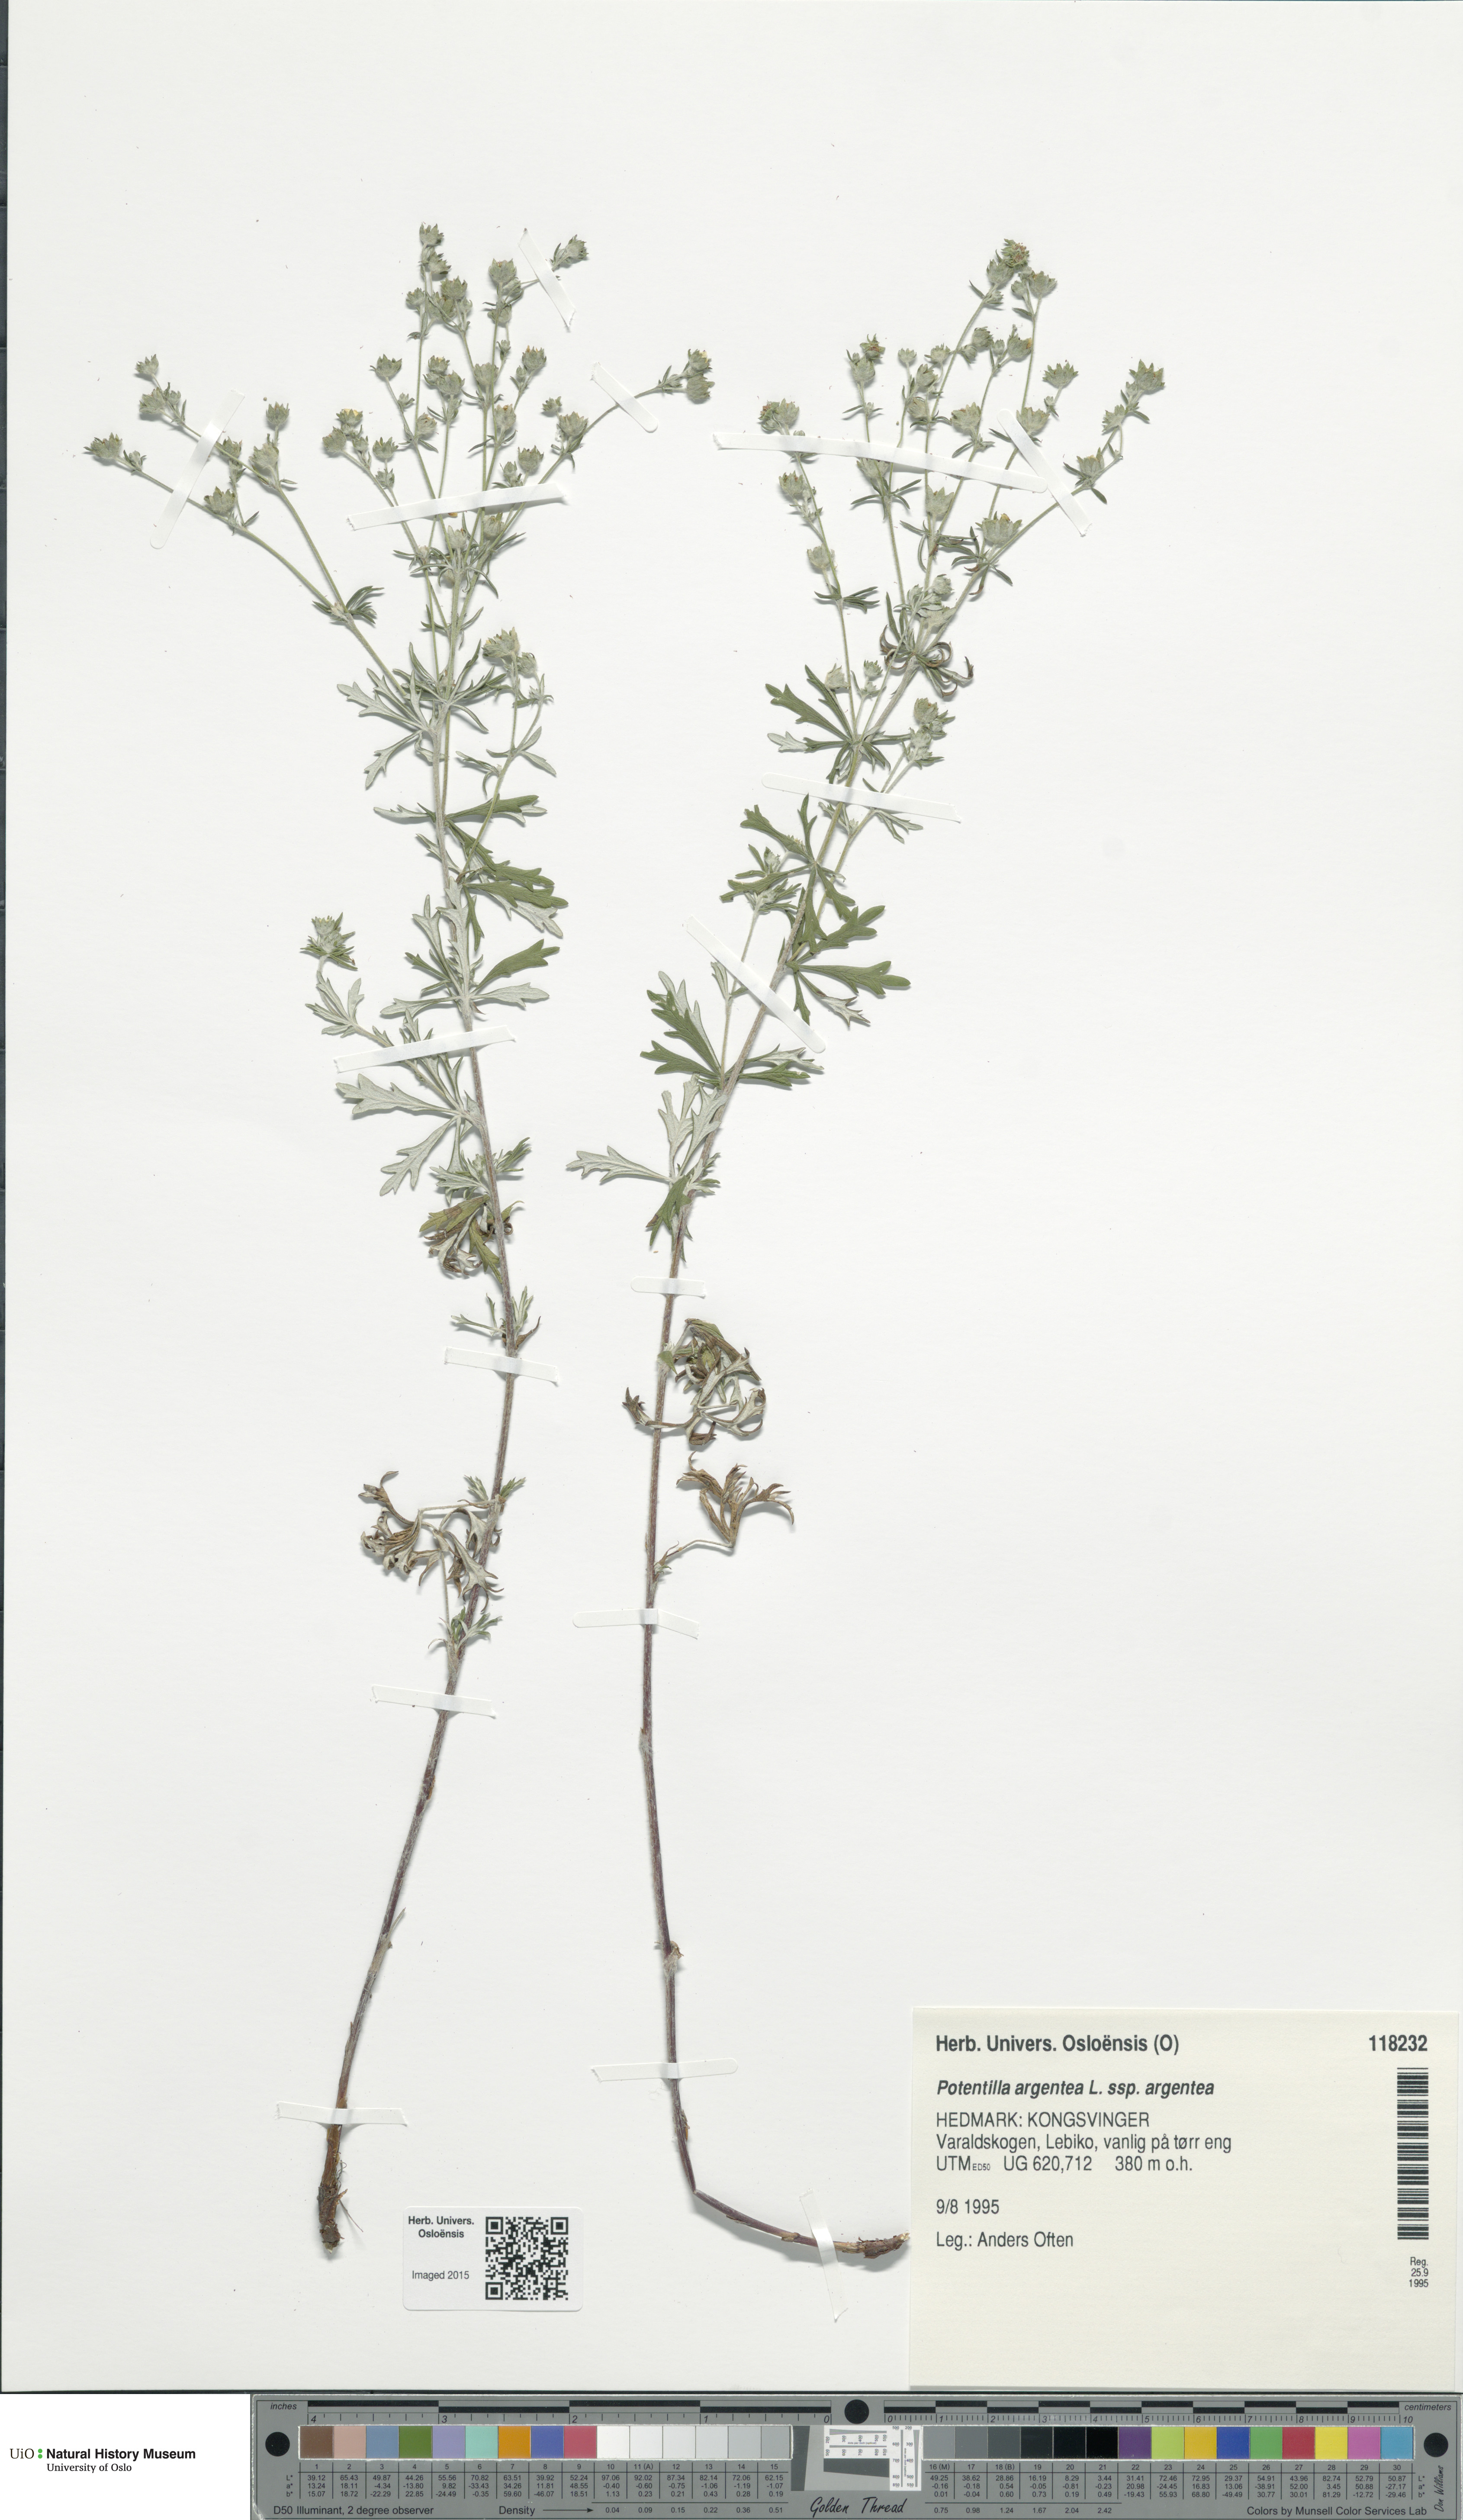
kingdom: Plantae
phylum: Tracheophyta
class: Magnoliopsida
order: Rosales
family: Rosaceae
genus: Potentilla
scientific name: Potentilla argentea
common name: Hoary cinquefoil
